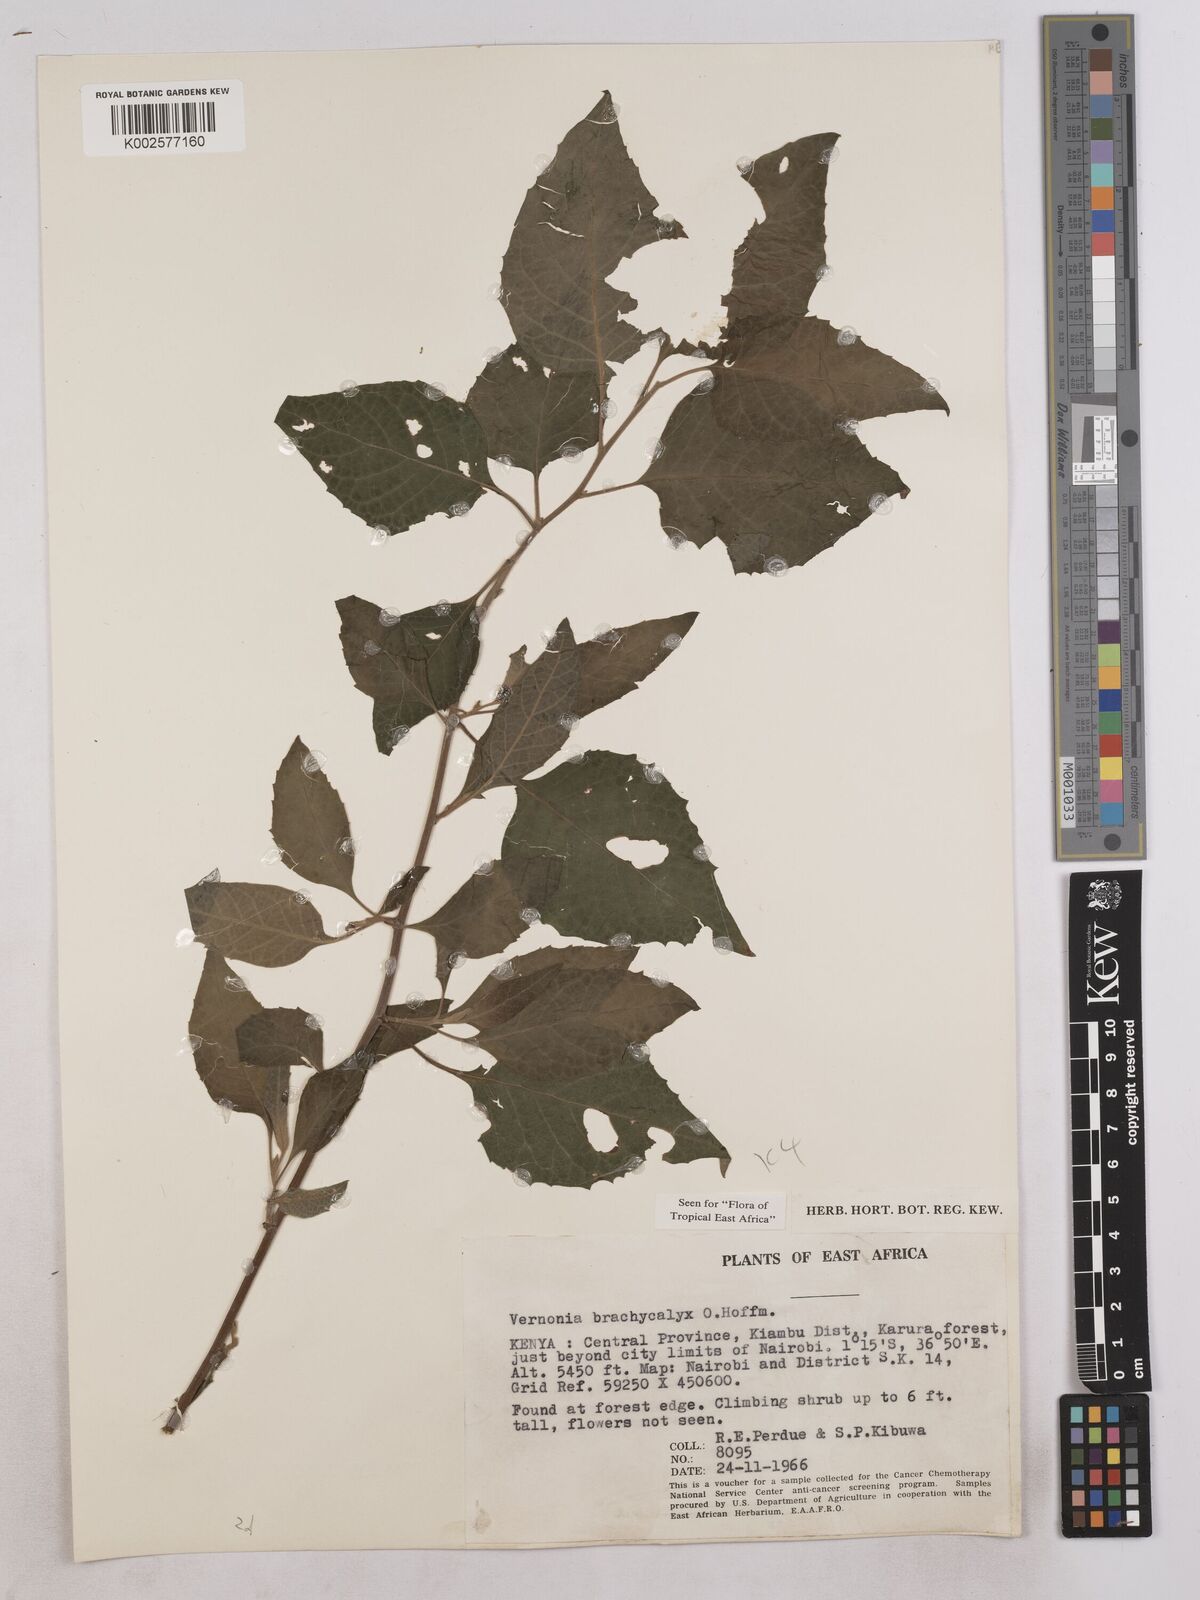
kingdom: Plantae
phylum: Tracheophyta
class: Magnoliopsida
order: Asterales
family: Asteraceae
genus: Hoffmannanthus
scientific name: Hoffmannanthus abbotianus
